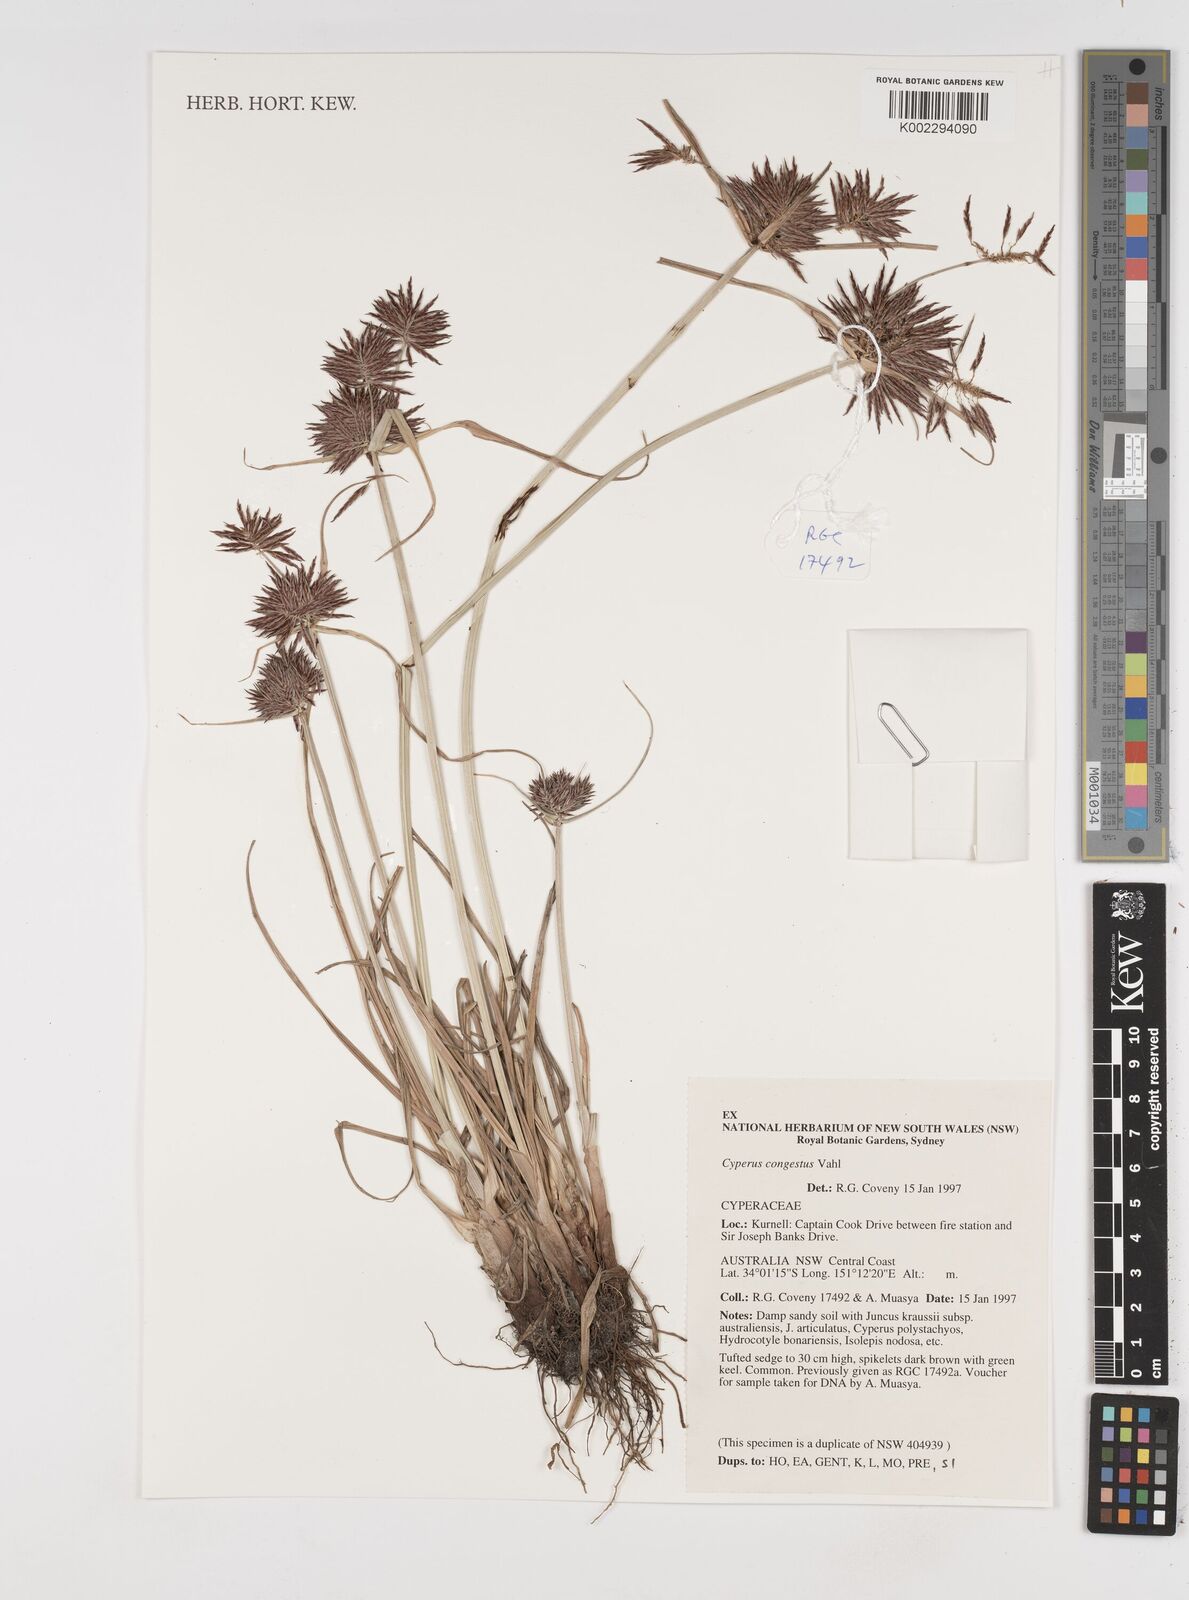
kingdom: Plantae
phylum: Tracheophyta
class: Liliopsida
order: Poales
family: Cyperaceae
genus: Cyperus
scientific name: Cyperus congestus
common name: Dense flat sedge
